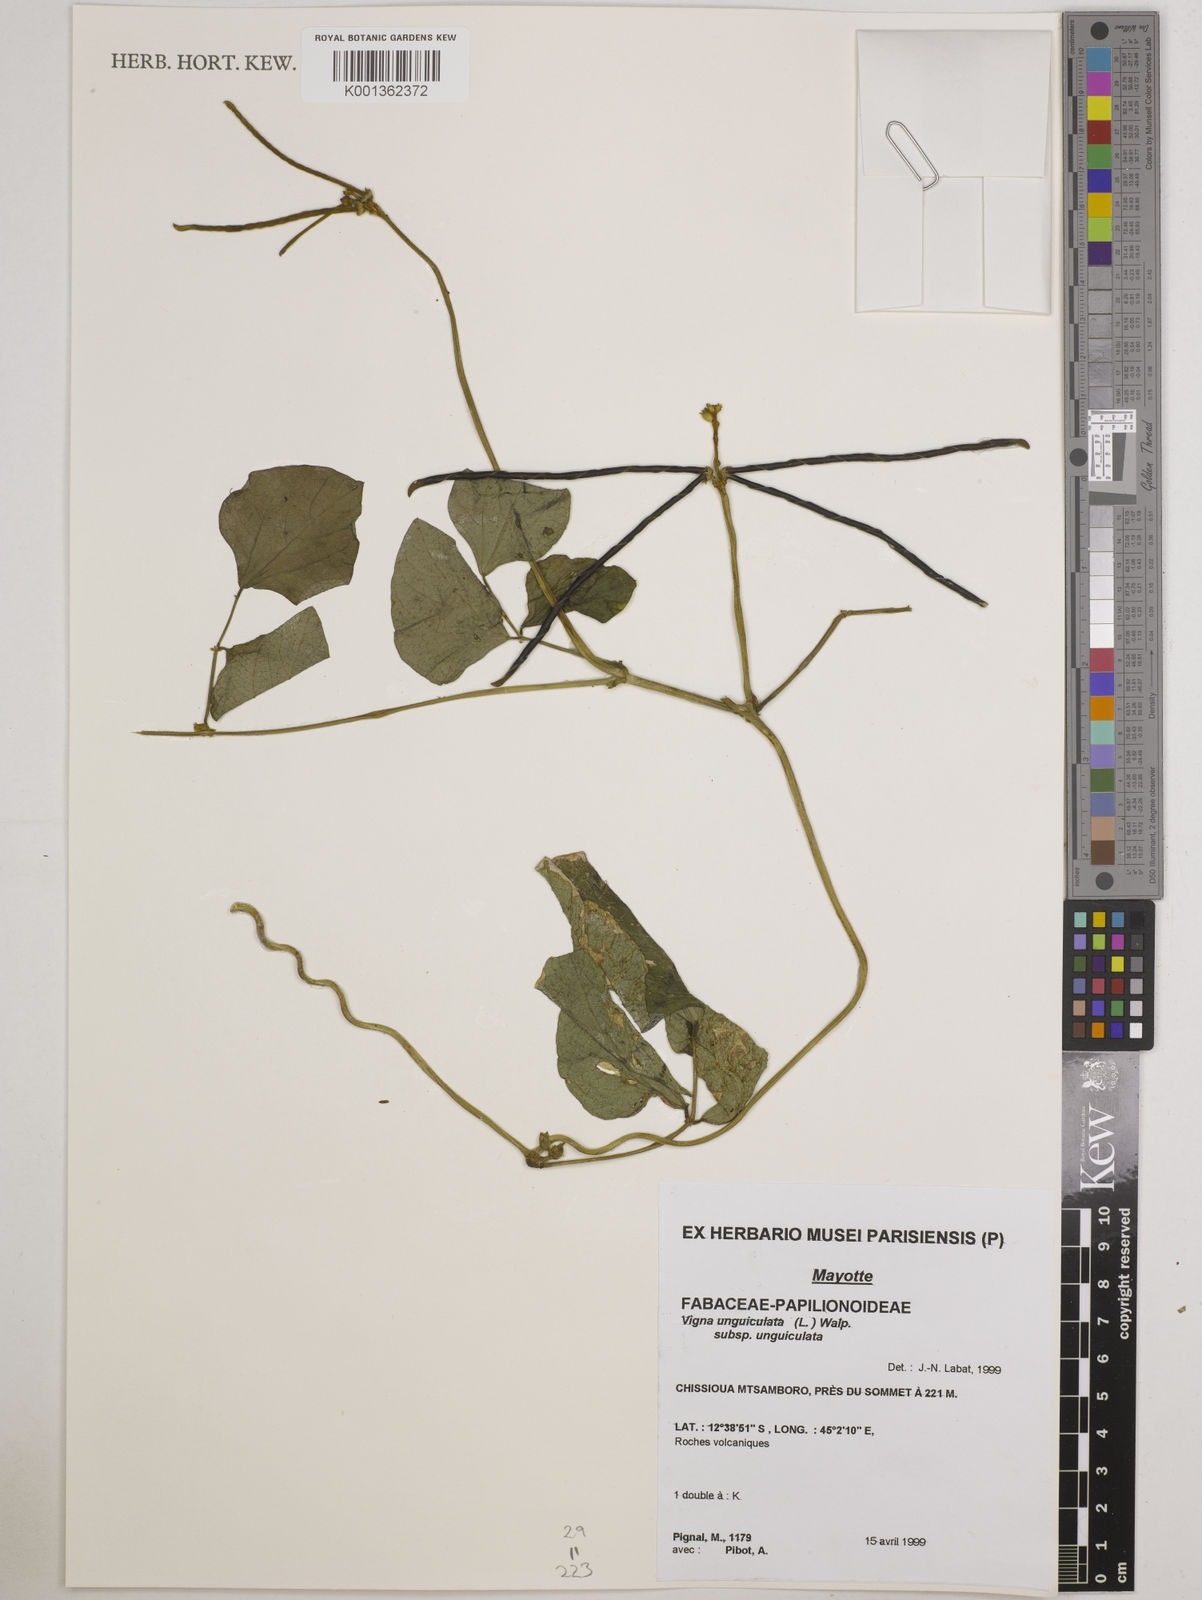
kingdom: Plantae
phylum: Tracheophyta
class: Magnoliopsida
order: Fabales
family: Fabaceae
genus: Vigna
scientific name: Vigna
